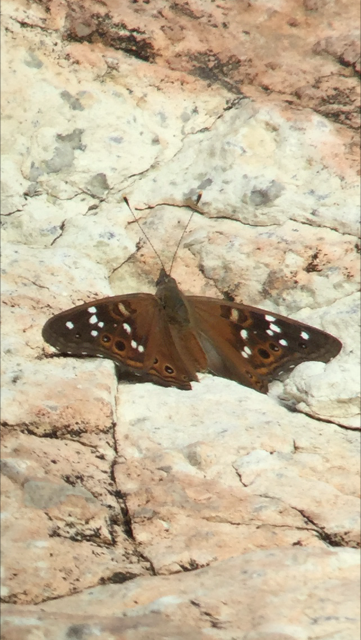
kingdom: Animalia
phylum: Arthropoda
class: Insecta
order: Lepidoptera
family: Nymphalidae
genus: Asterocampa
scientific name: Asterocampa leilia
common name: Empress Leilia
